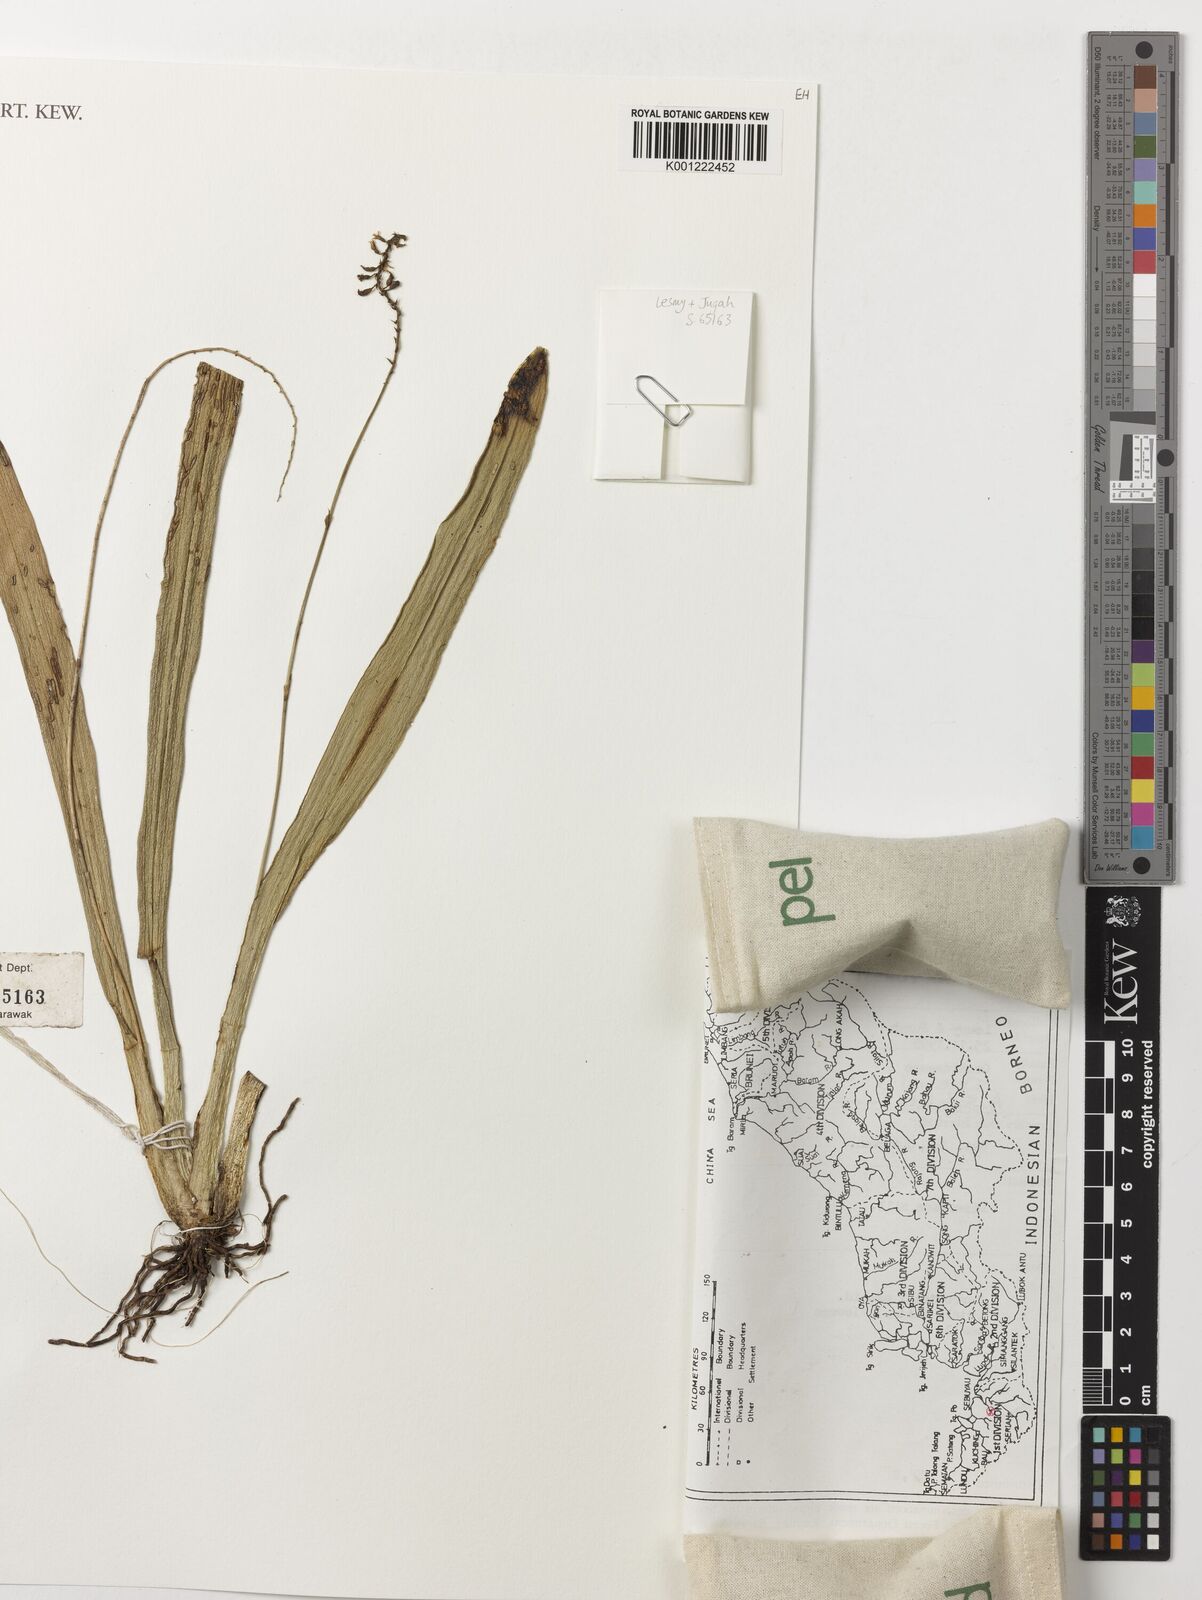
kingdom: Plantae
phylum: Tracheophyta
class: Liliopsida
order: Asparagales
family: Orchidaceae
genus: Thelasis
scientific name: Thelasis micrantha
